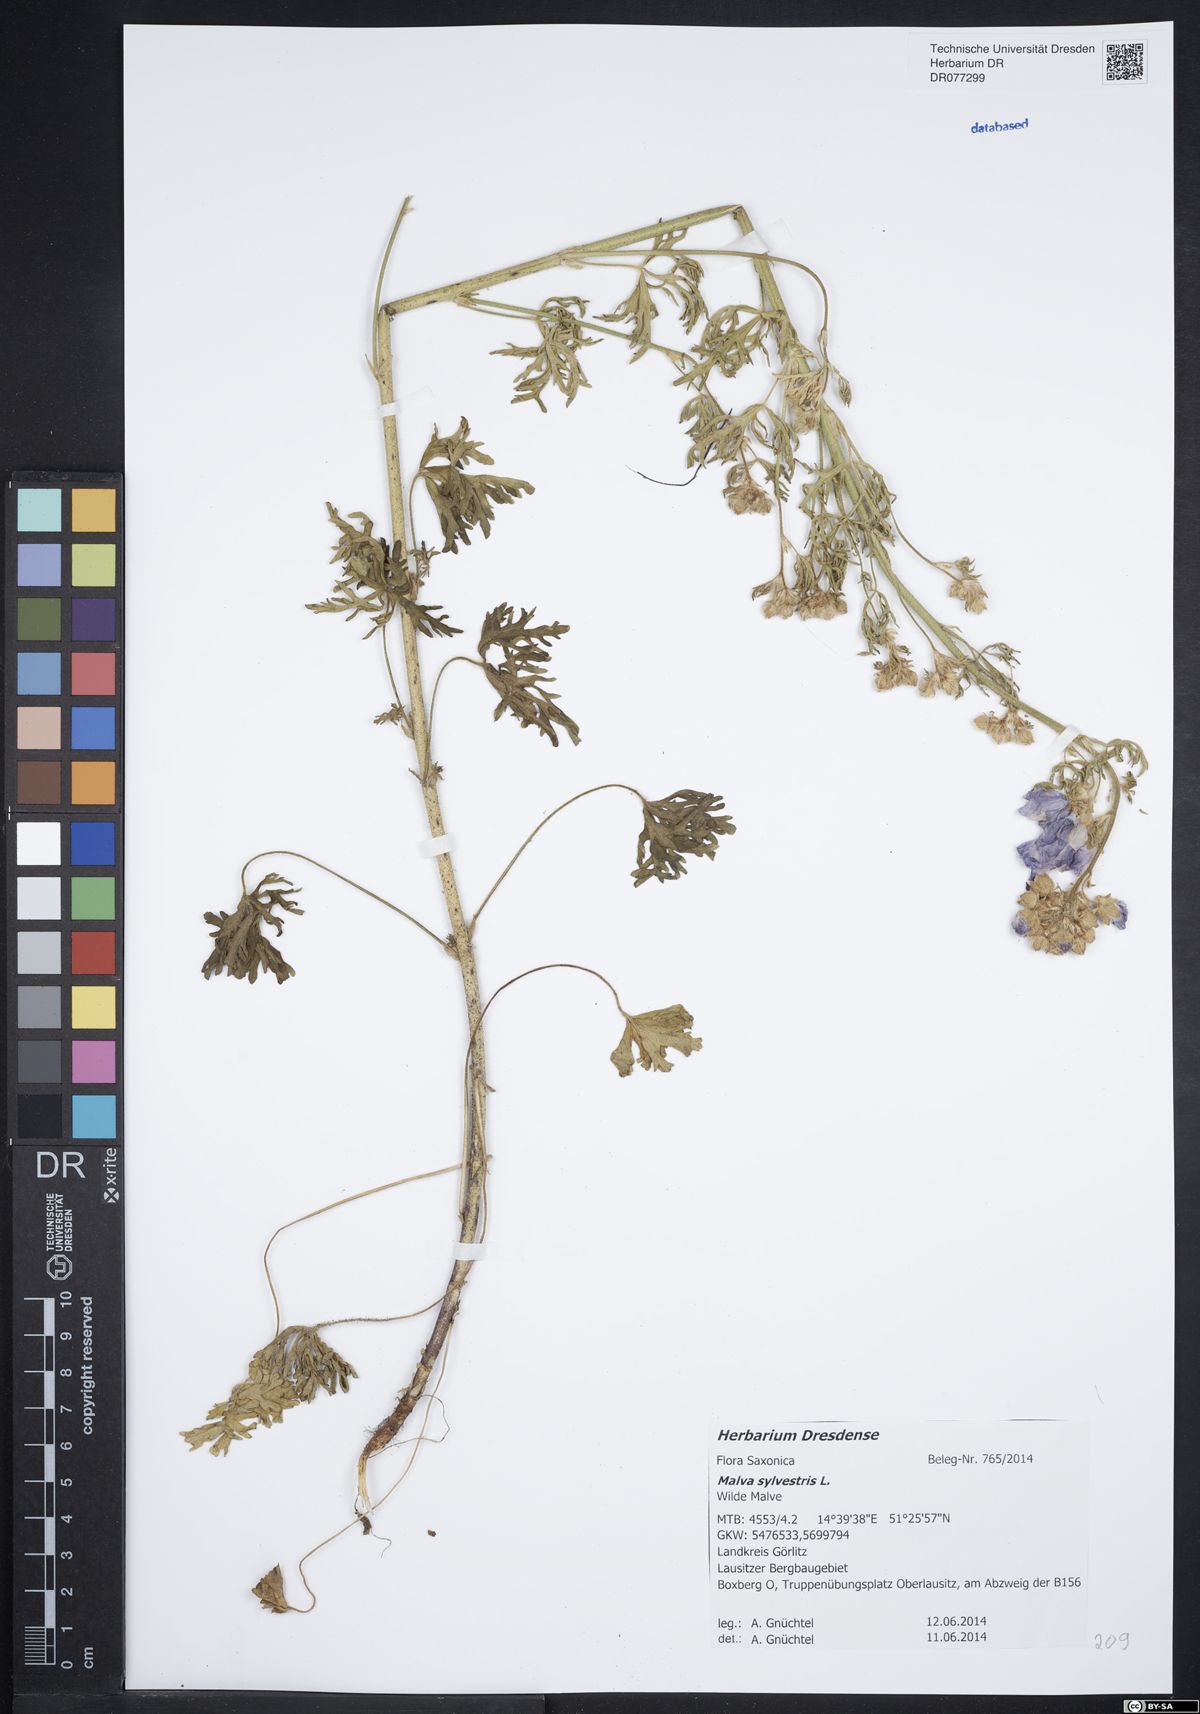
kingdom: Plantae
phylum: Tracheophyta
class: Magnoliopsida
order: Malvales
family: Malvaceae
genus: Malva
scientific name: Malva sylvestris
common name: Common mallow
